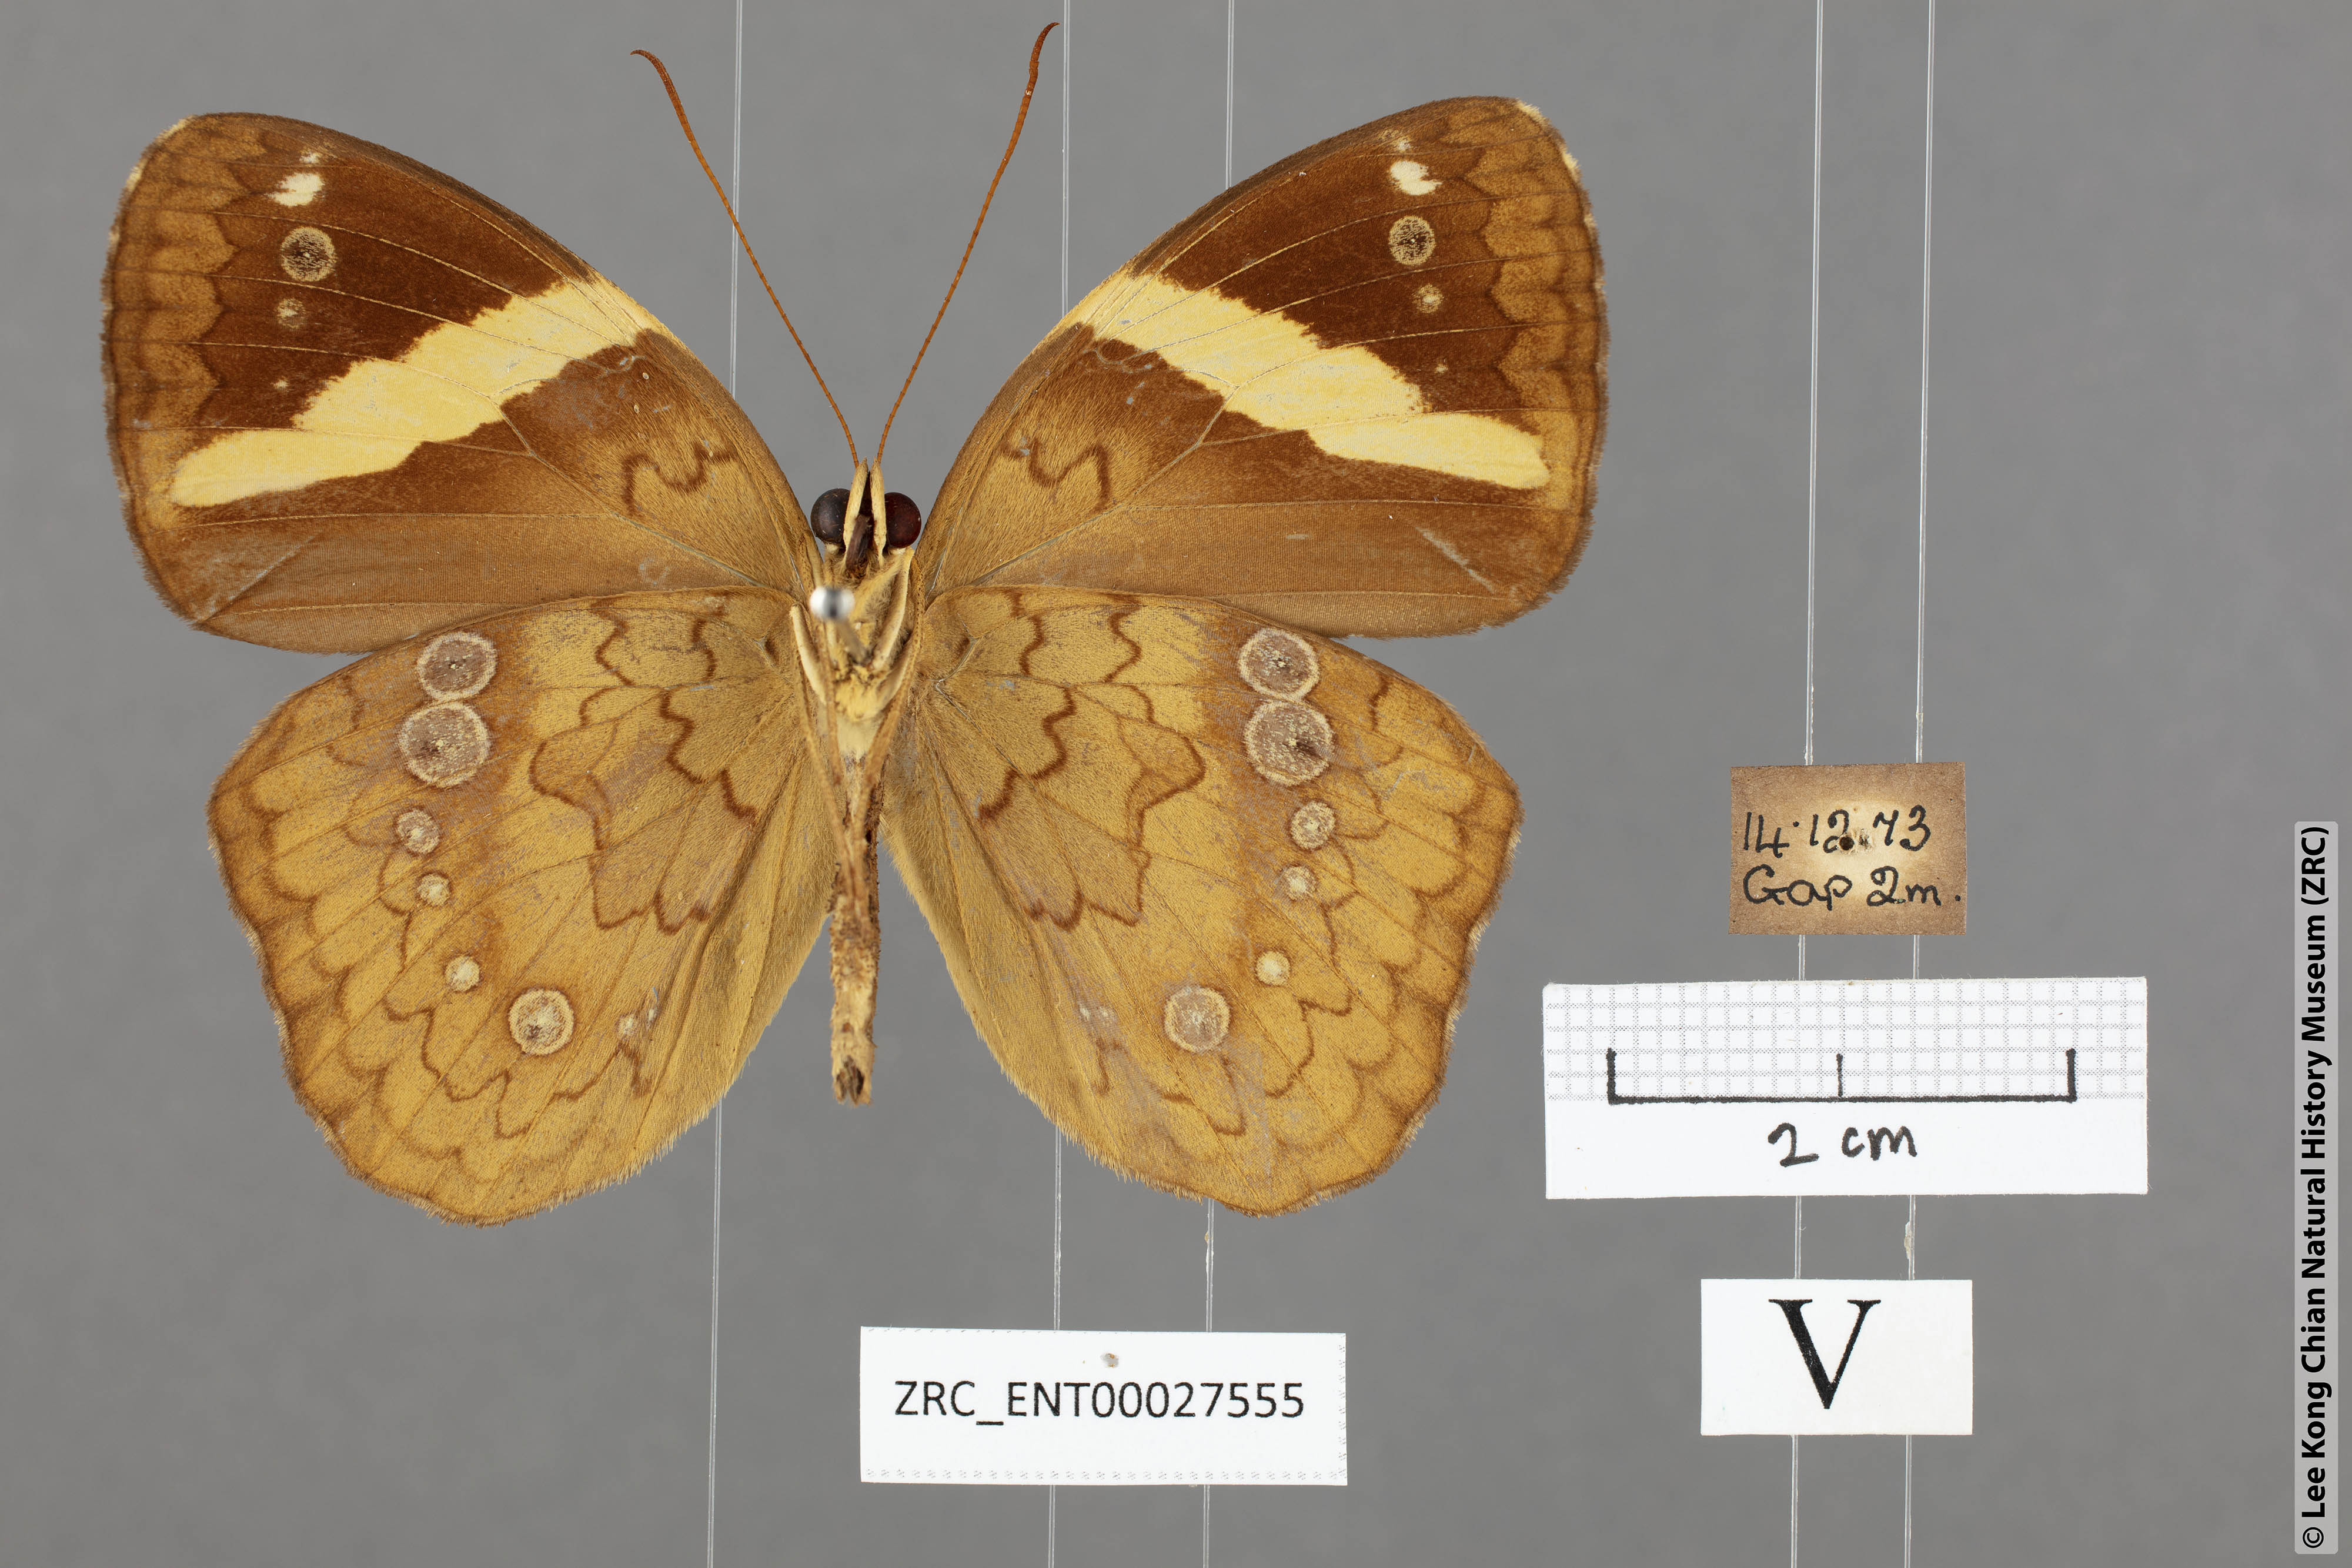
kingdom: Animalia
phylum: Arthropoda
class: Insecta
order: Lepidoptera
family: Nymphalidae
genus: Xanthotaenia
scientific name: Xanthotaenia busiris
